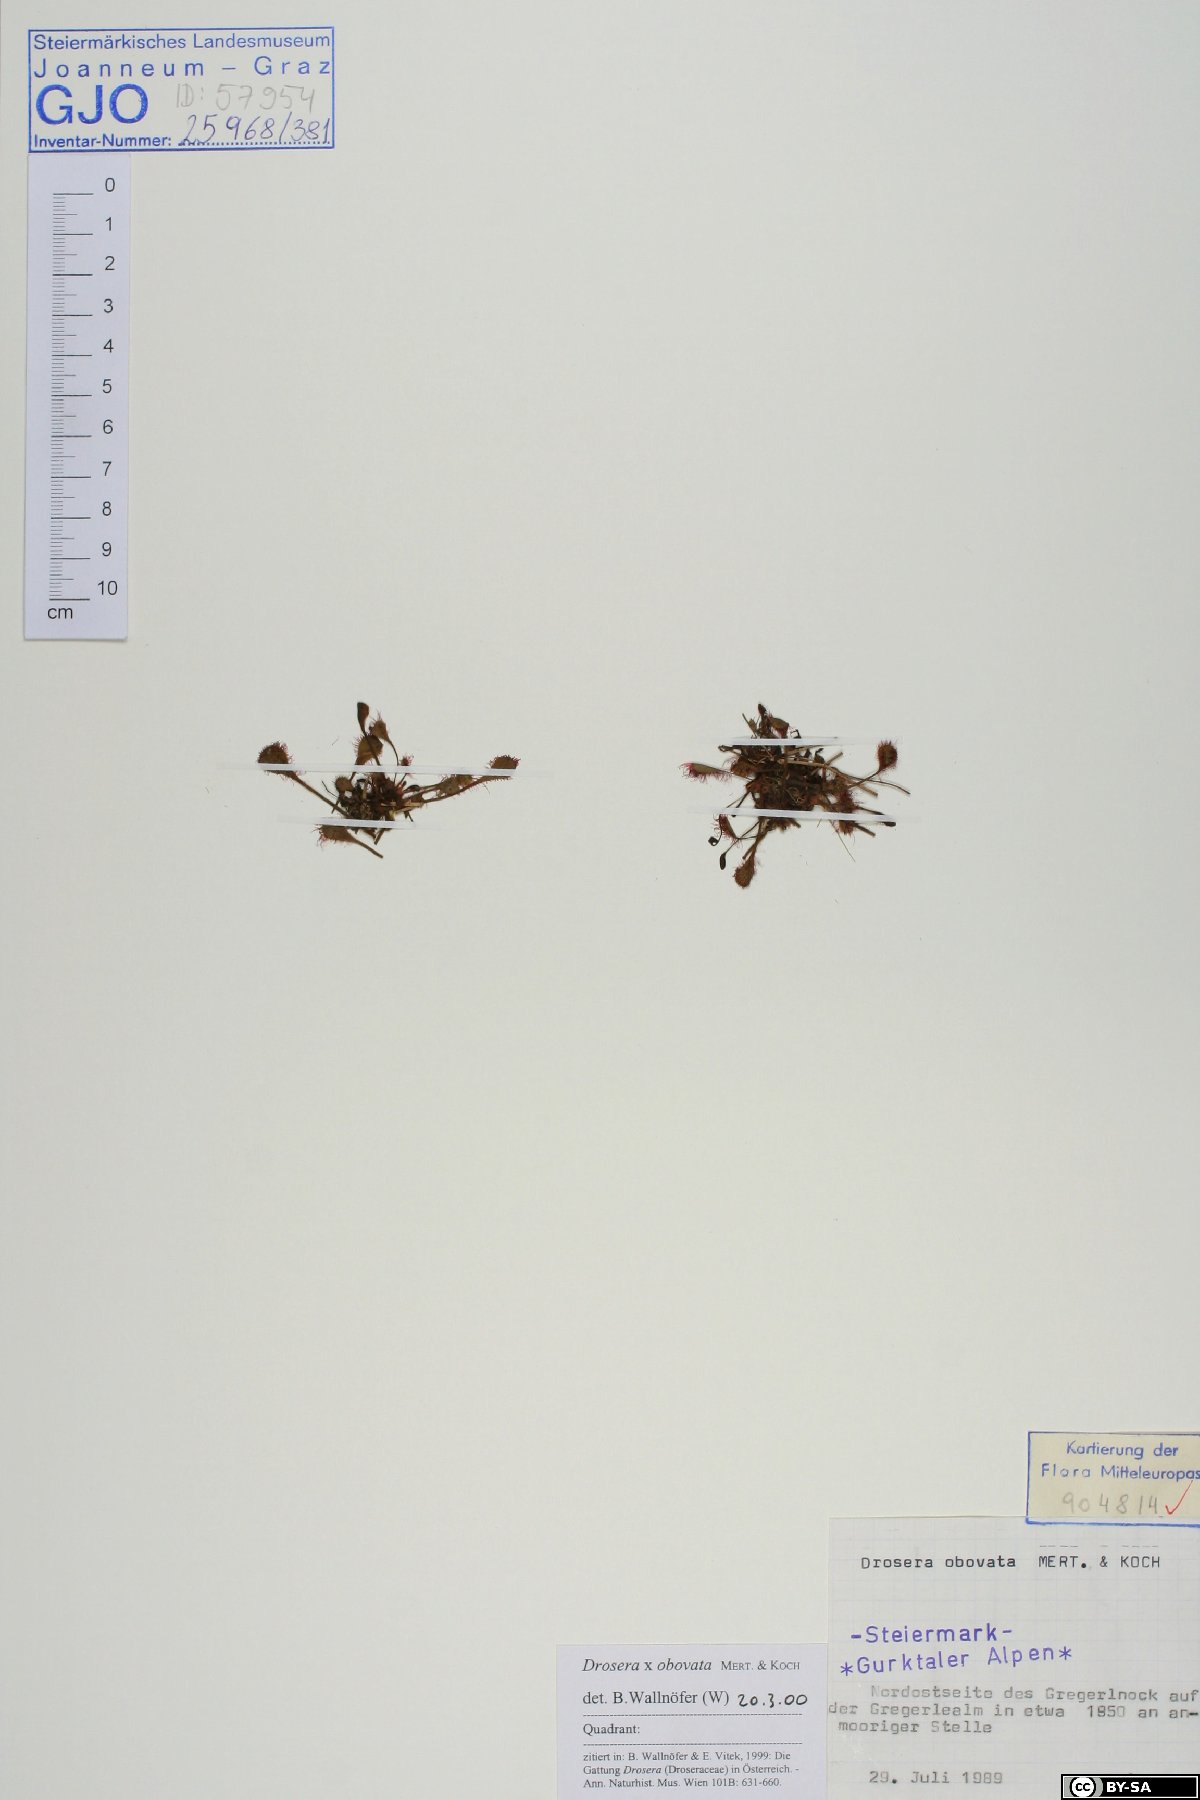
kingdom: Plantae
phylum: Tracheophyta
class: Magnoliopsida
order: Caryophyllales
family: Droseraceae
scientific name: Droseraceae
